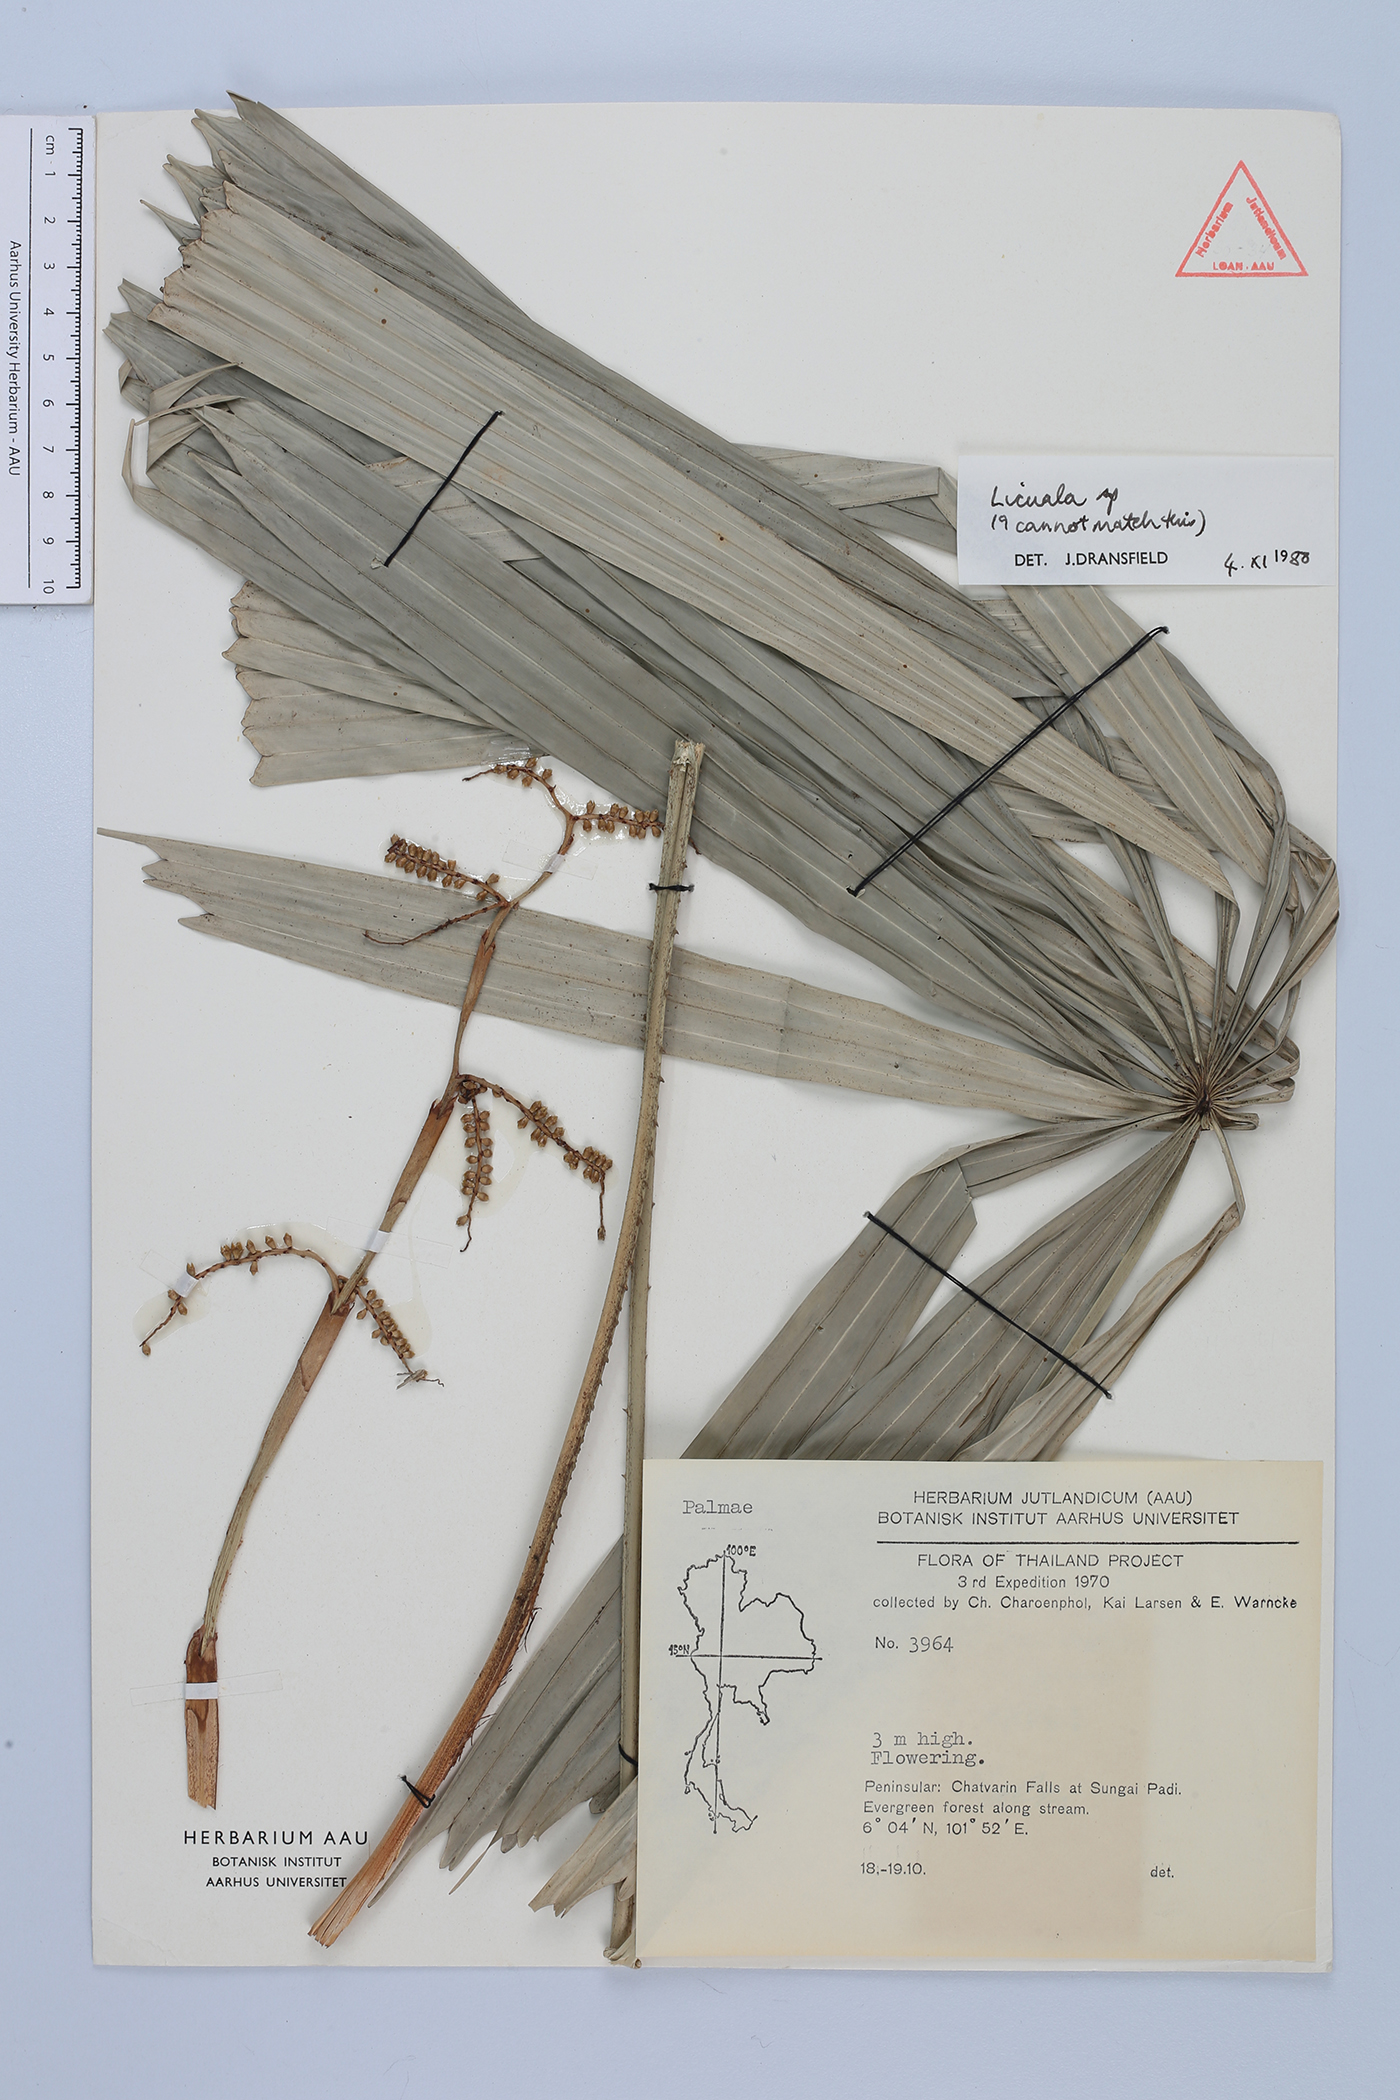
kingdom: Plantae
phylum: Tracheophyta
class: Liliopsida
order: Arecales
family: Arecaceae
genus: Licuala
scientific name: Licuala
